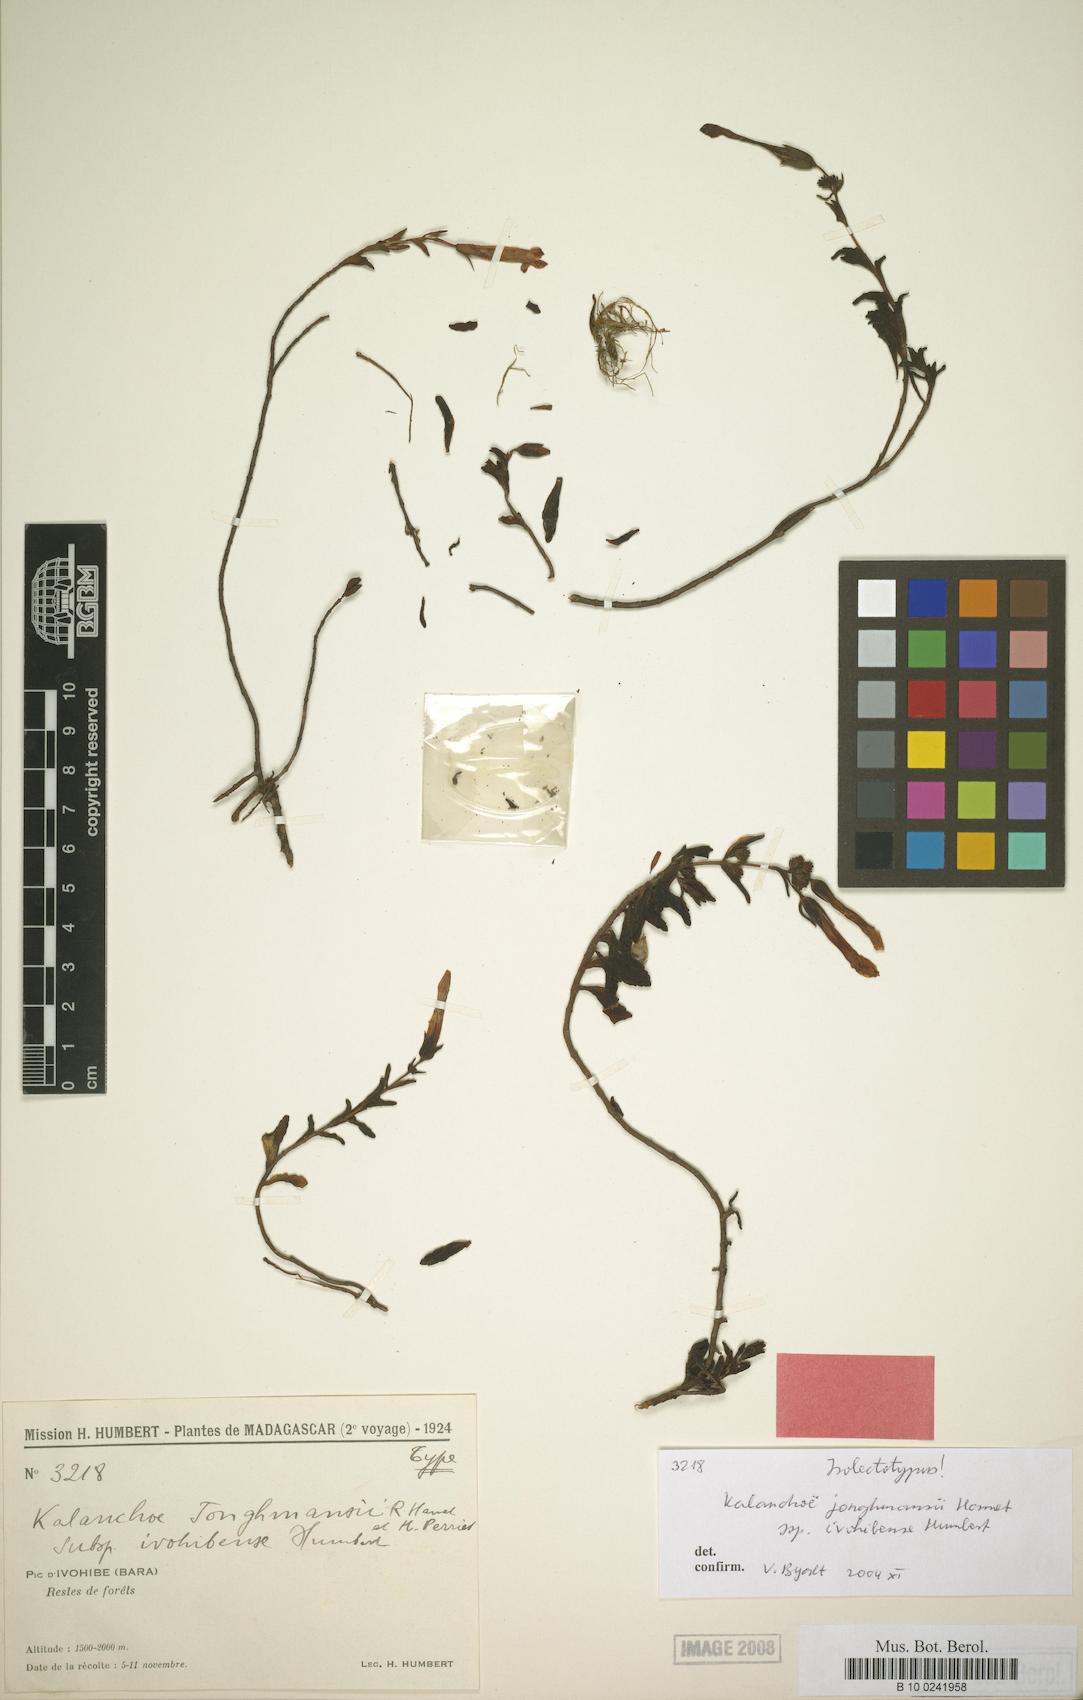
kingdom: Plantae
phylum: Tracheophyta
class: Magnoliopsida
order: Saxifragales
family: Crassulaceae
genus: Kalanchoe
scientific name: Kalanchoe jongmansii
